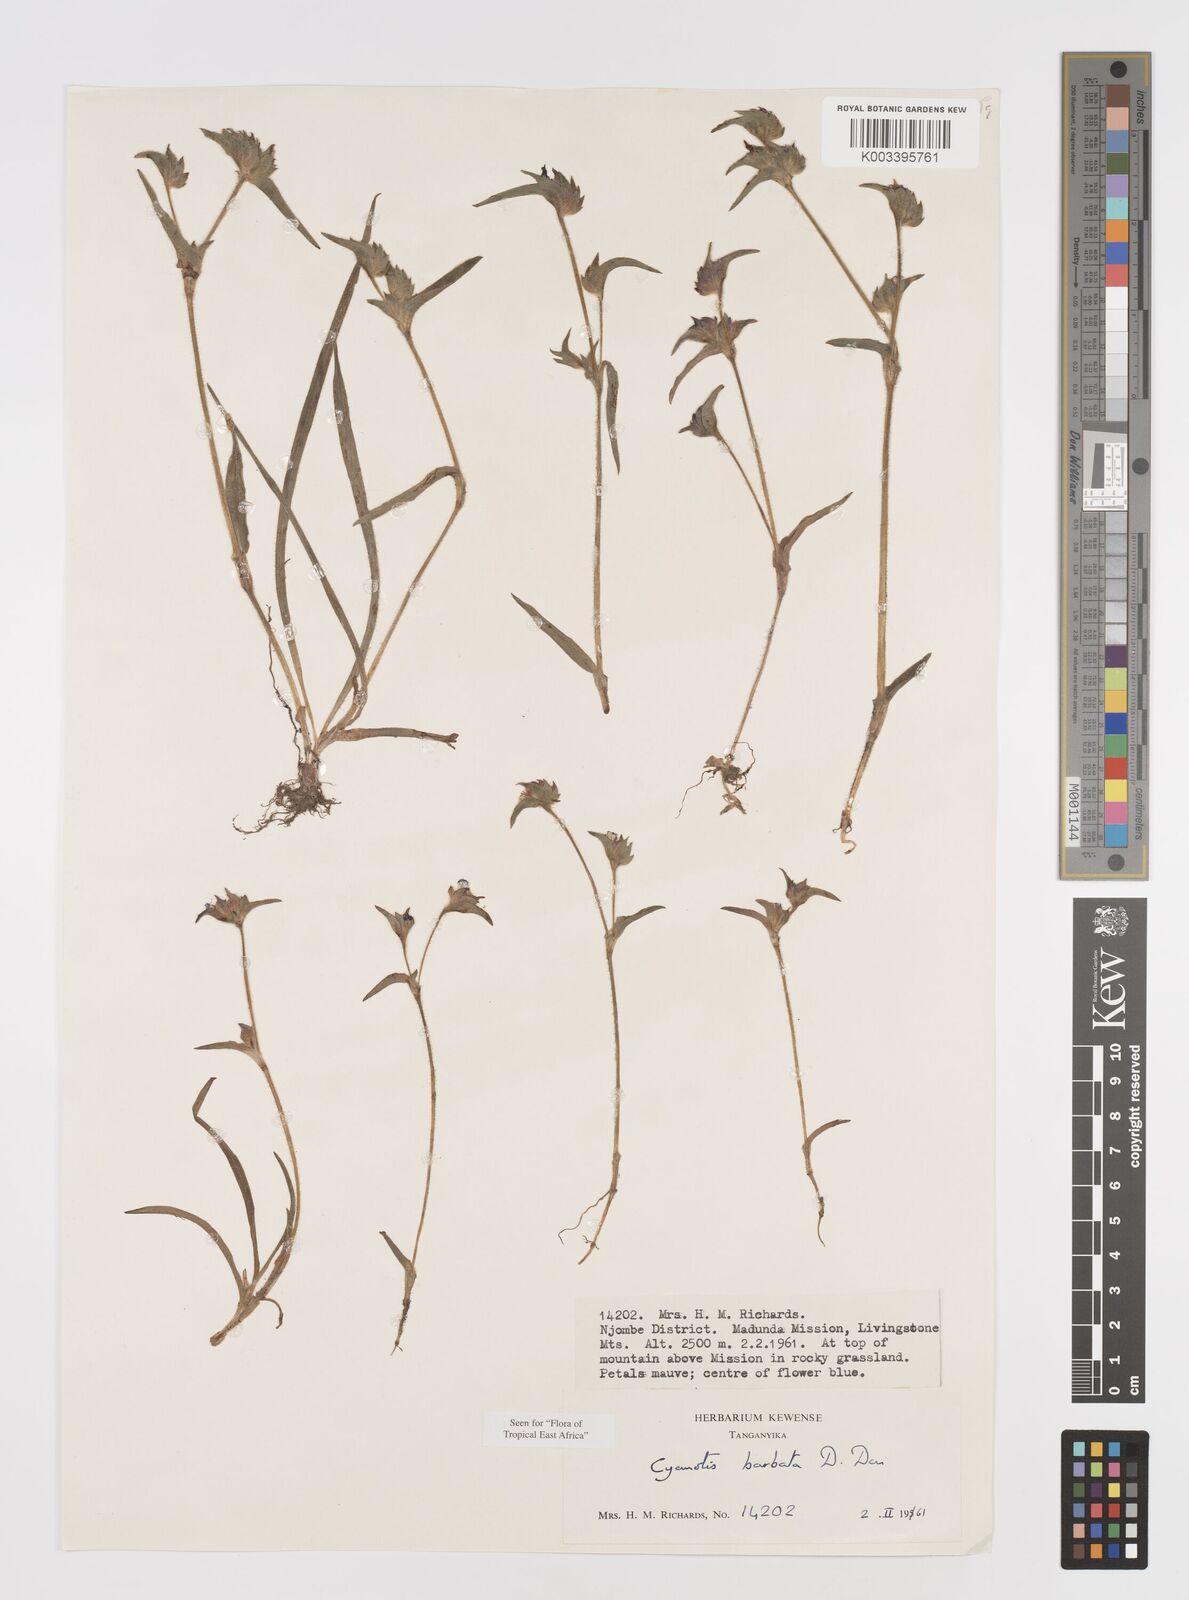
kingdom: Plantae
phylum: Tracheophyta
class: Liliopsida
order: Commelinales
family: Commelinaceae
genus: Cyanotis
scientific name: Cyanotis vaga
